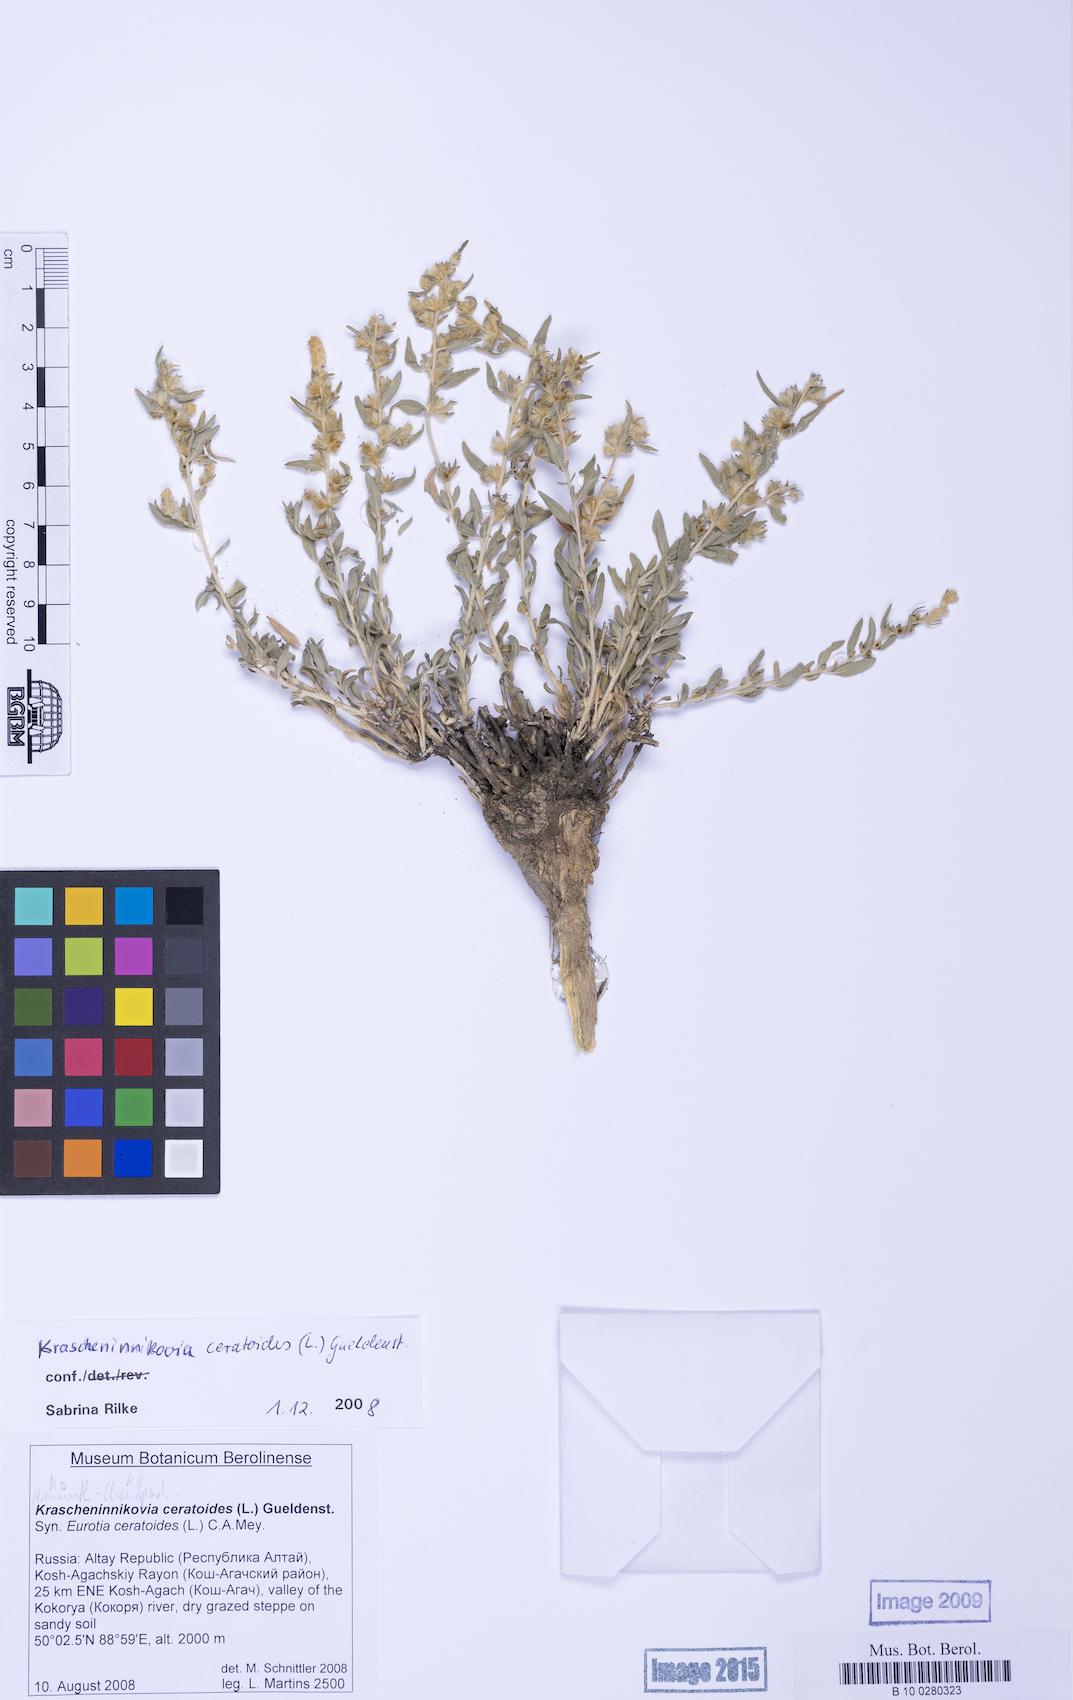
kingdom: Plantae
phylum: Tracheophyta
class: Magnoliopsida
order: Caryophyllales
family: Amaranthaceae
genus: Krascheninnikovia
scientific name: Krascheninnikovia ceratoides
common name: Pamirian winterfat
